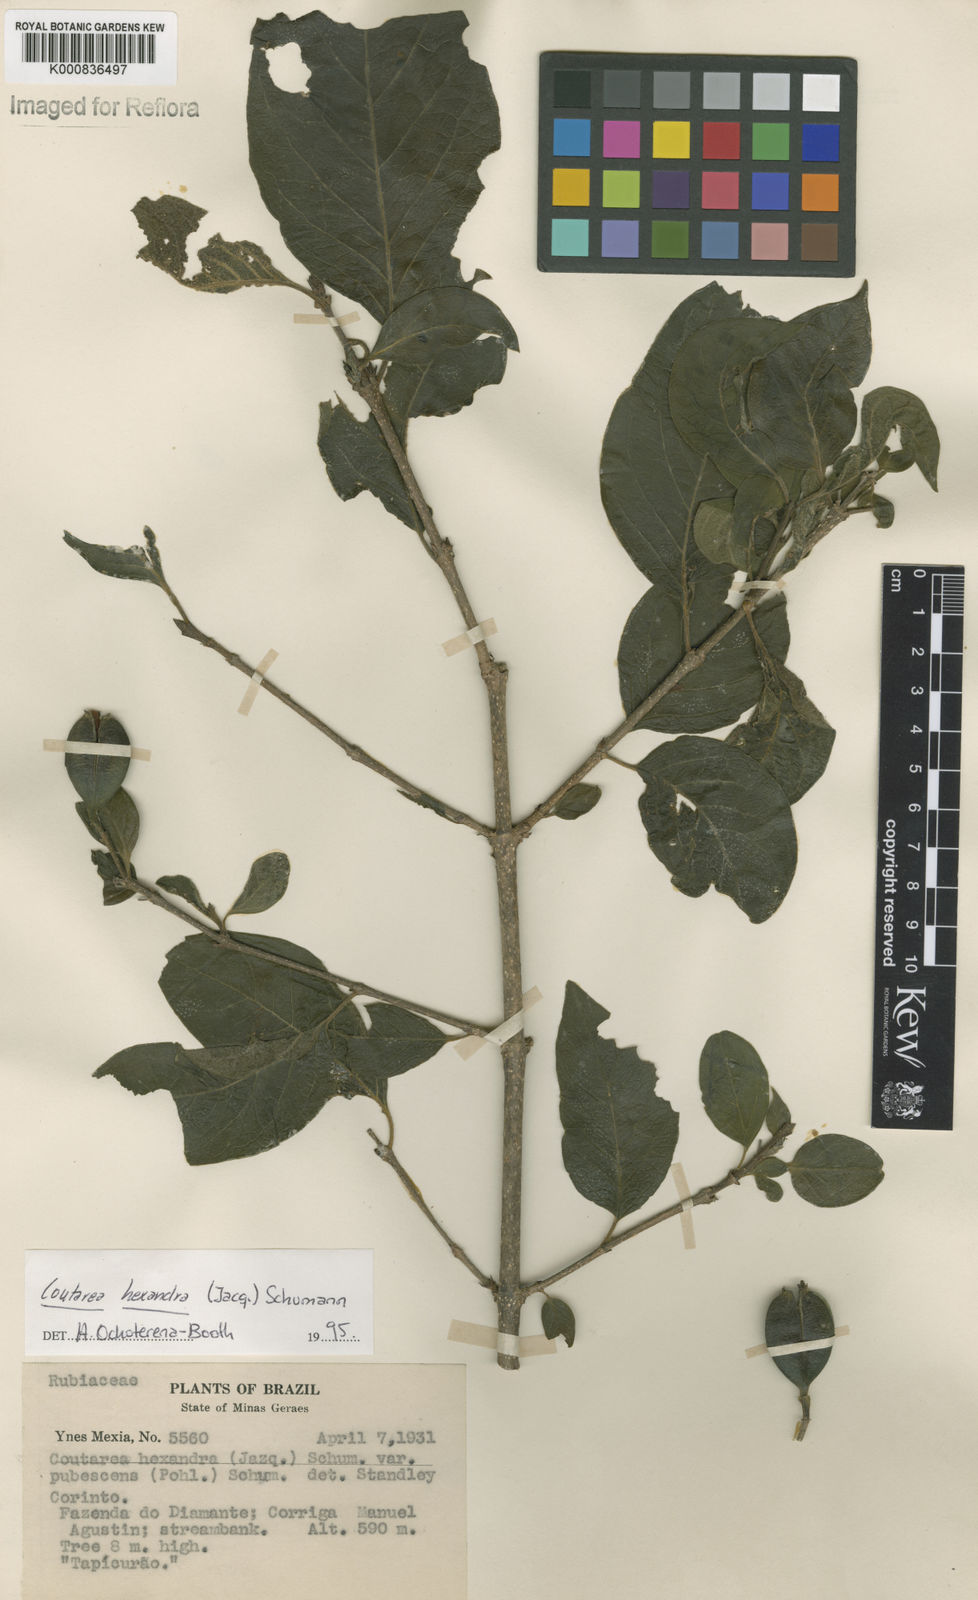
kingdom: Plantae
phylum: Tracheophyta
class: Magnoliopsida
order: Gentianales
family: Rubiaceae
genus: Coutarea
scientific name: Coutarea hexandra
